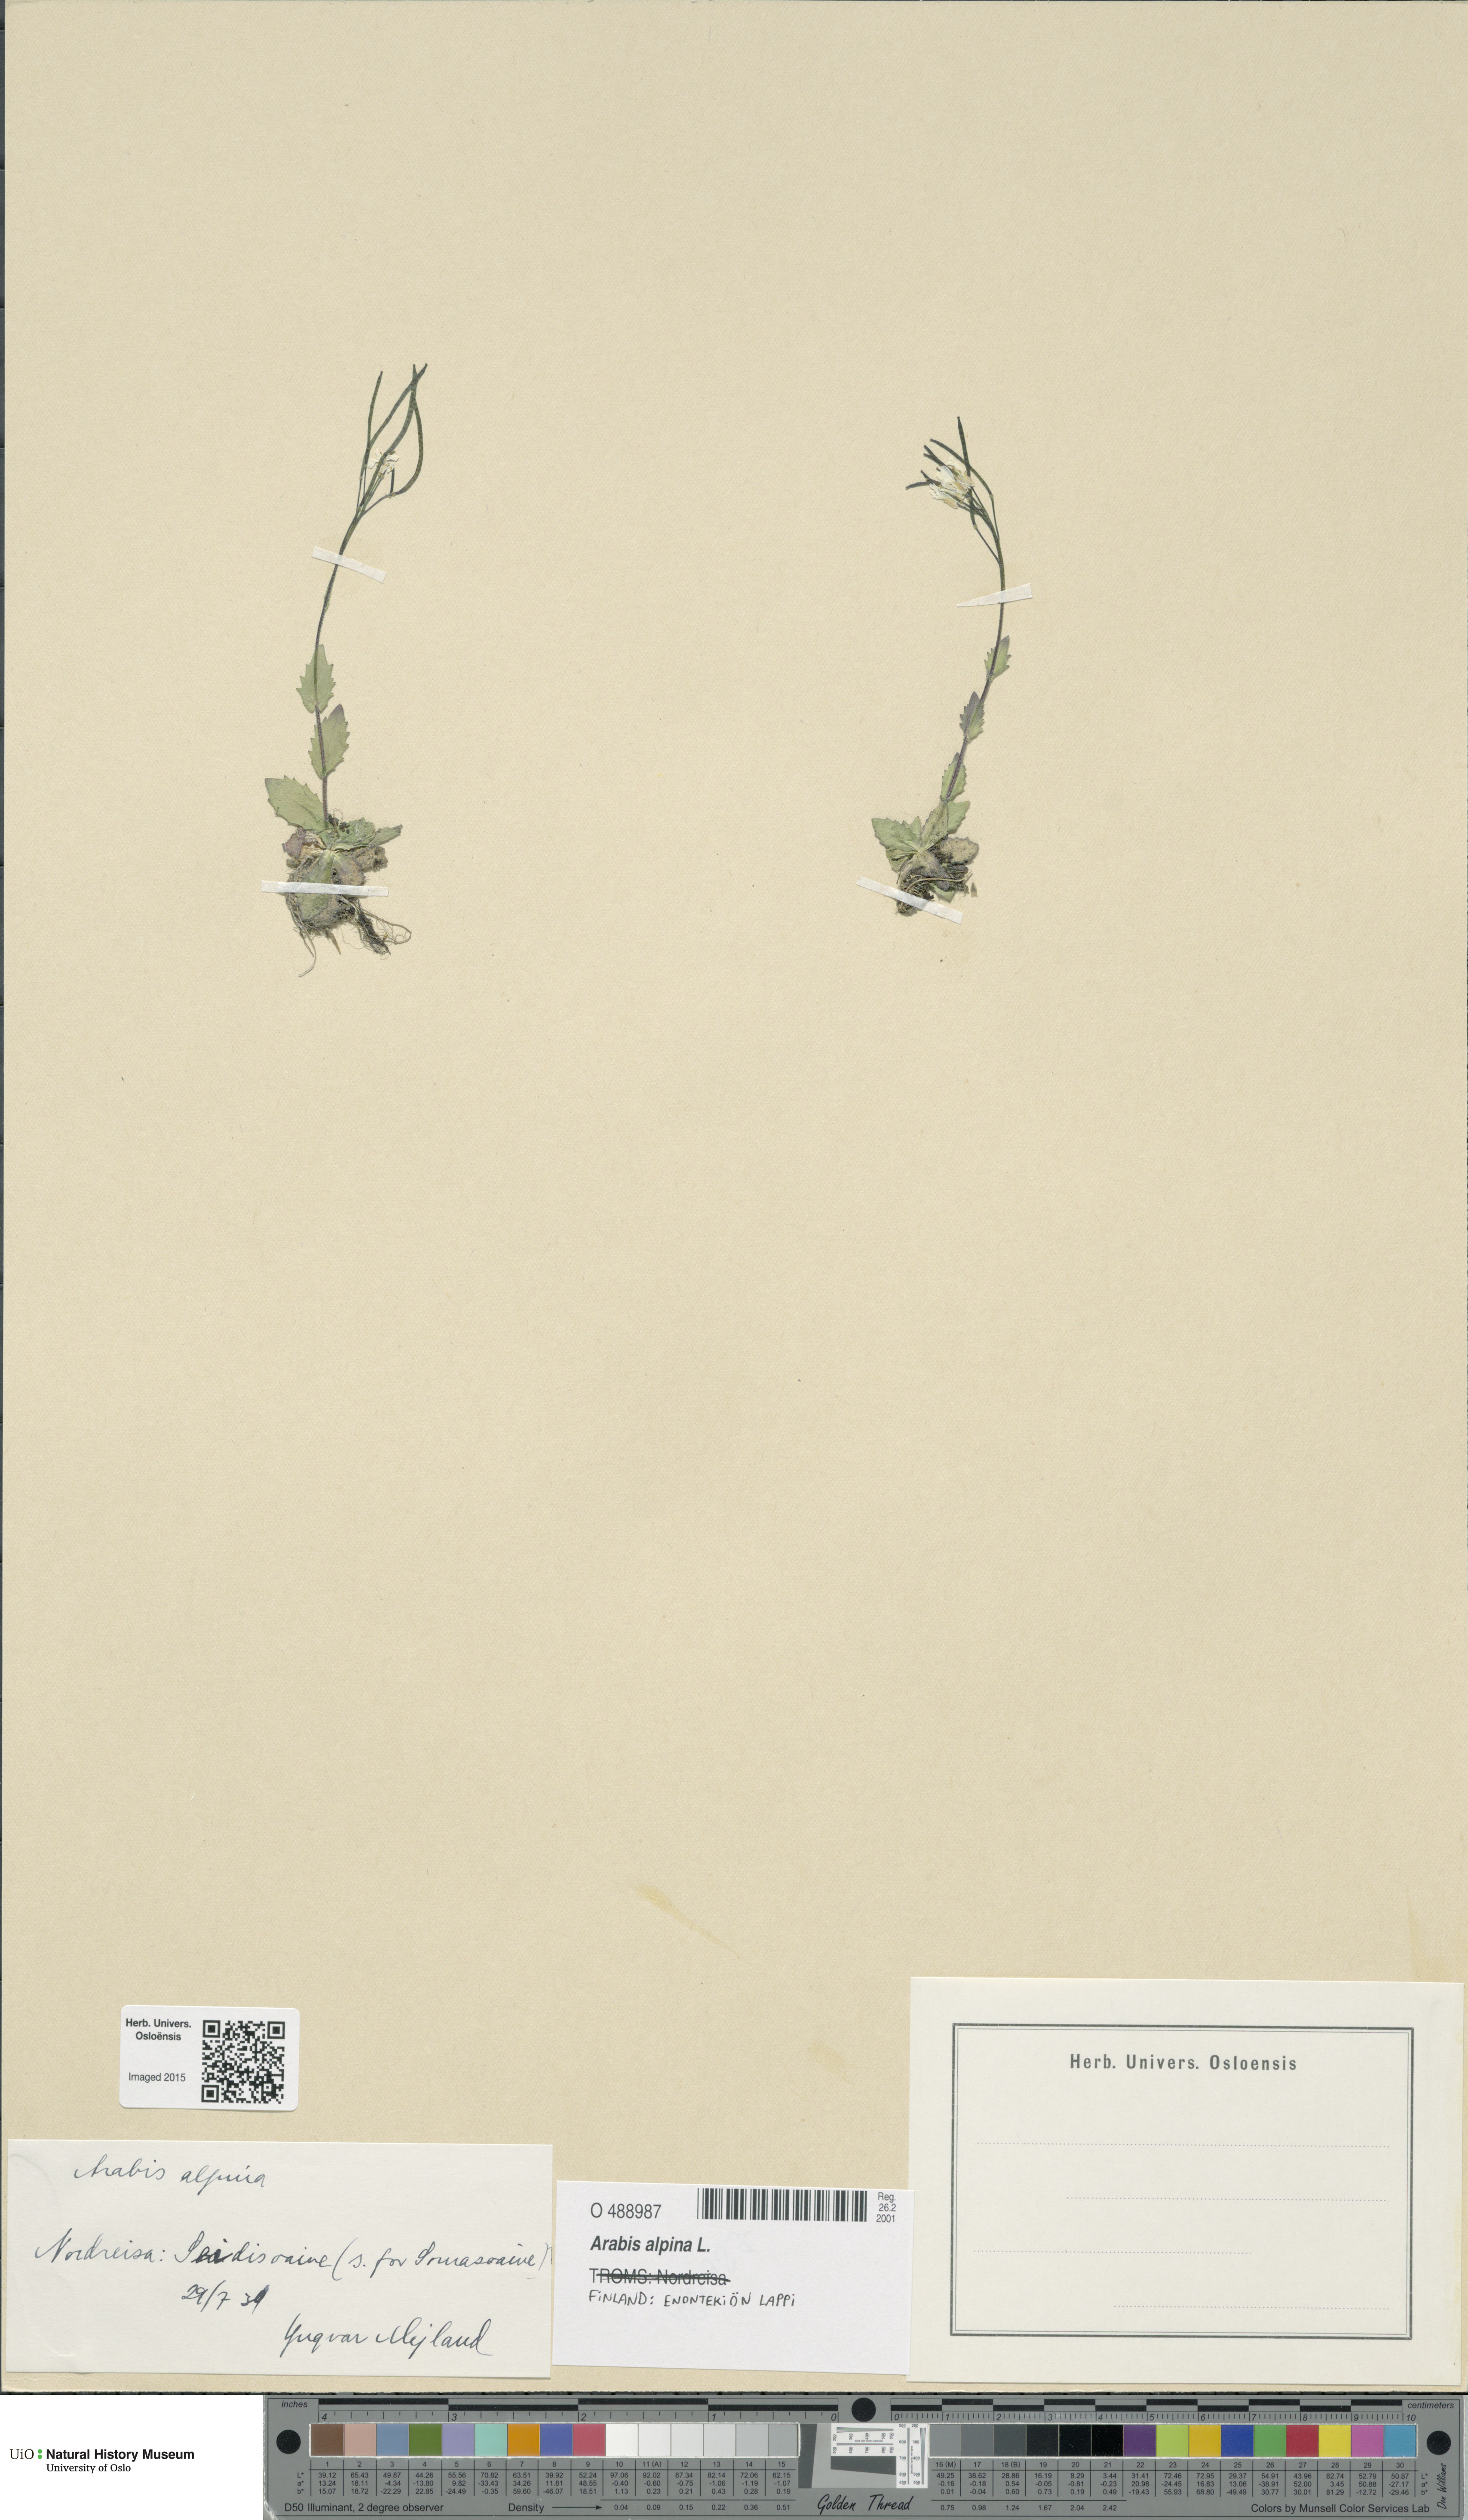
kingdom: Plantae
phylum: Tracheophyta
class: Magnoliopsida
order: Brassicales
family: Brassicaceae
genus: Arabis
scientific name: Arabis alpina
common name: Alpine rock-cress
